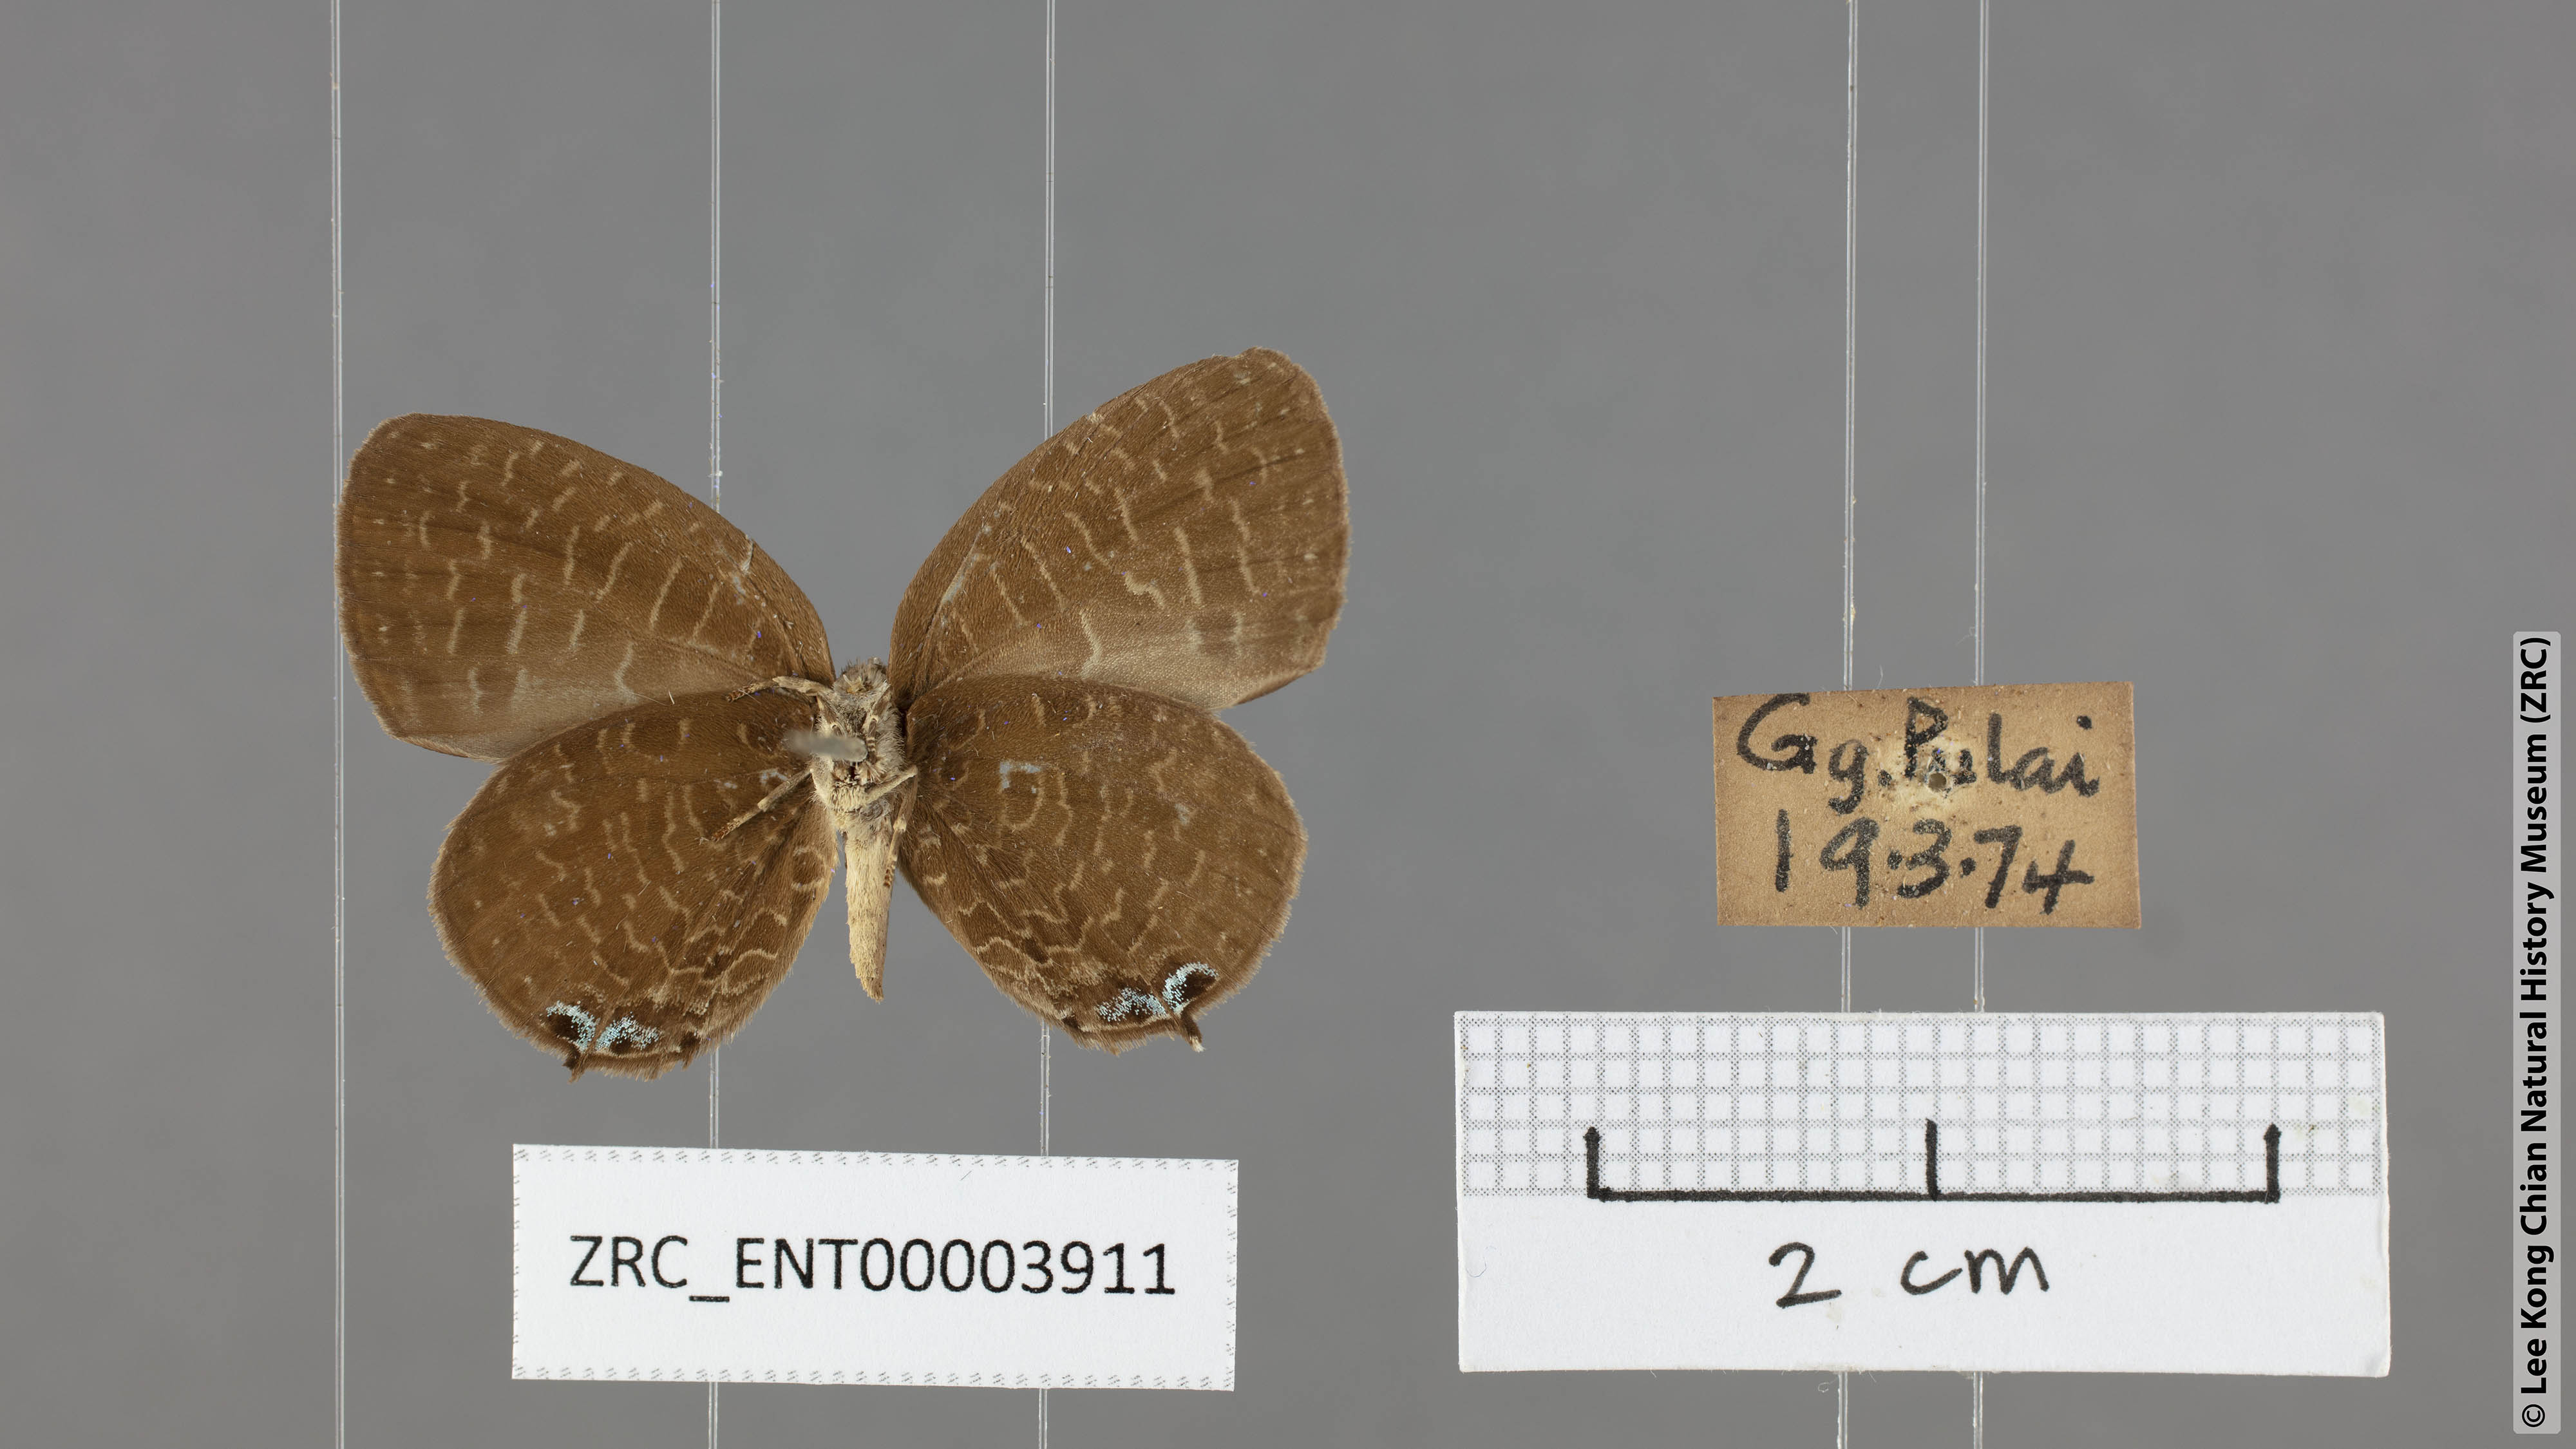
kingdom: Animalia
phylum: Arthropoda
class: Insecta
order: Lepidoptera
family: Lycaenidae
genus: Arhopala
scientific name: Arhopala democritus
